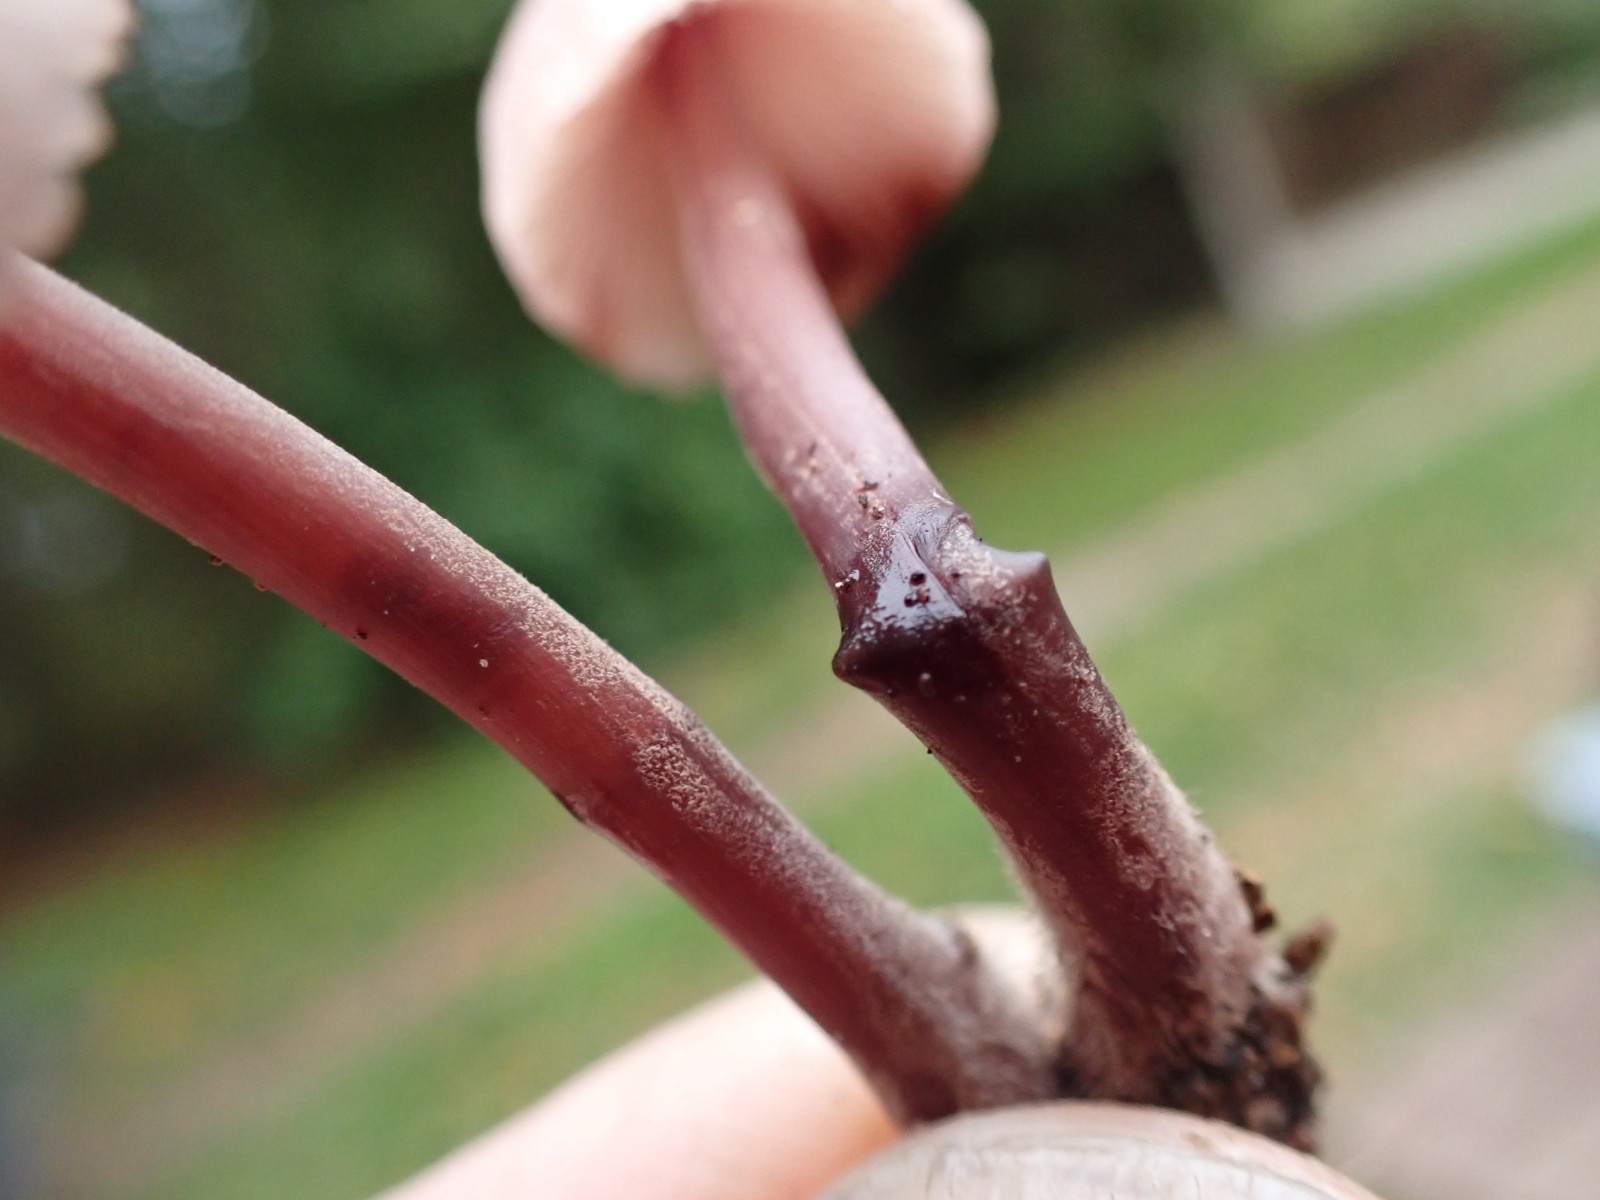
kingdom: Fungi
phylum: Basidiomycota
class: Agaricomycetes
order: Agaricales
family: Mycenaceae
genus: Mycena
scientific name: Mycena haematopus
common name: blødende huesvamp
